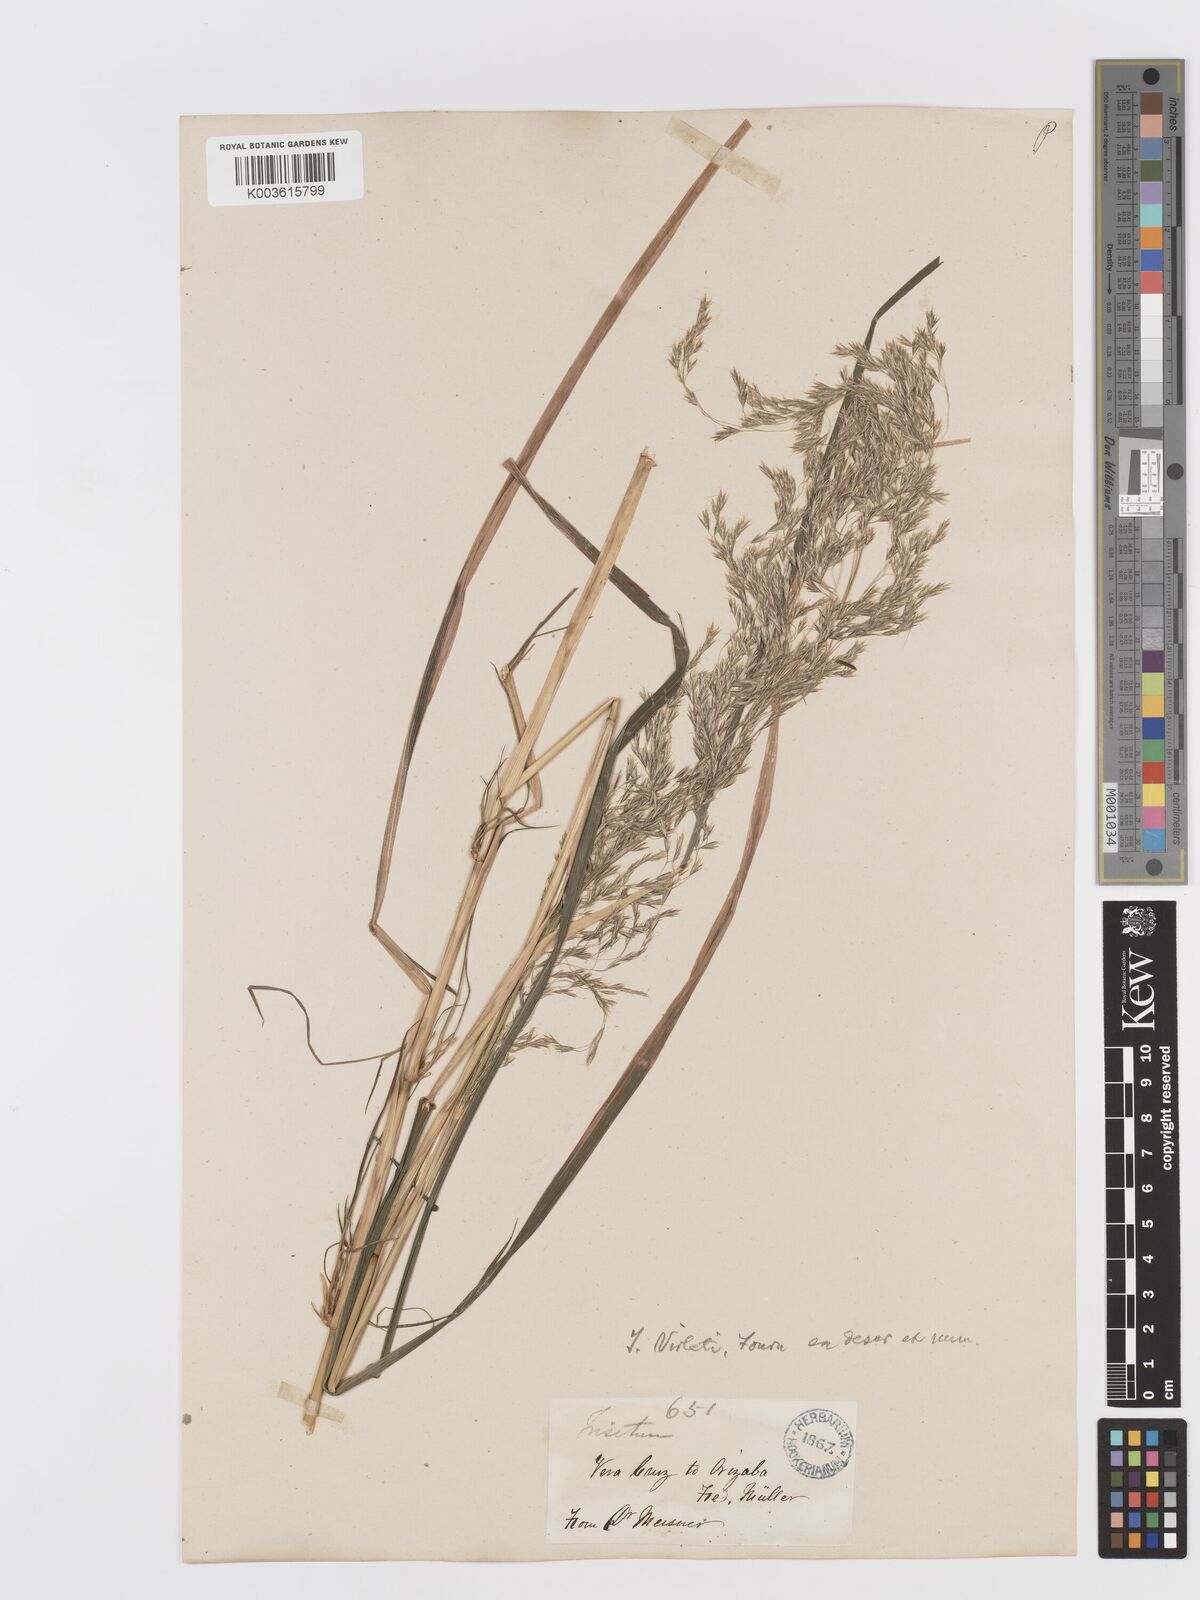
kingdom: Plantae
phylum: Tracheophyta
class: Liliopsida
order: Poales
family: Poaceae
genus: Peyritschia
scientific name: Peyritschia virletii
